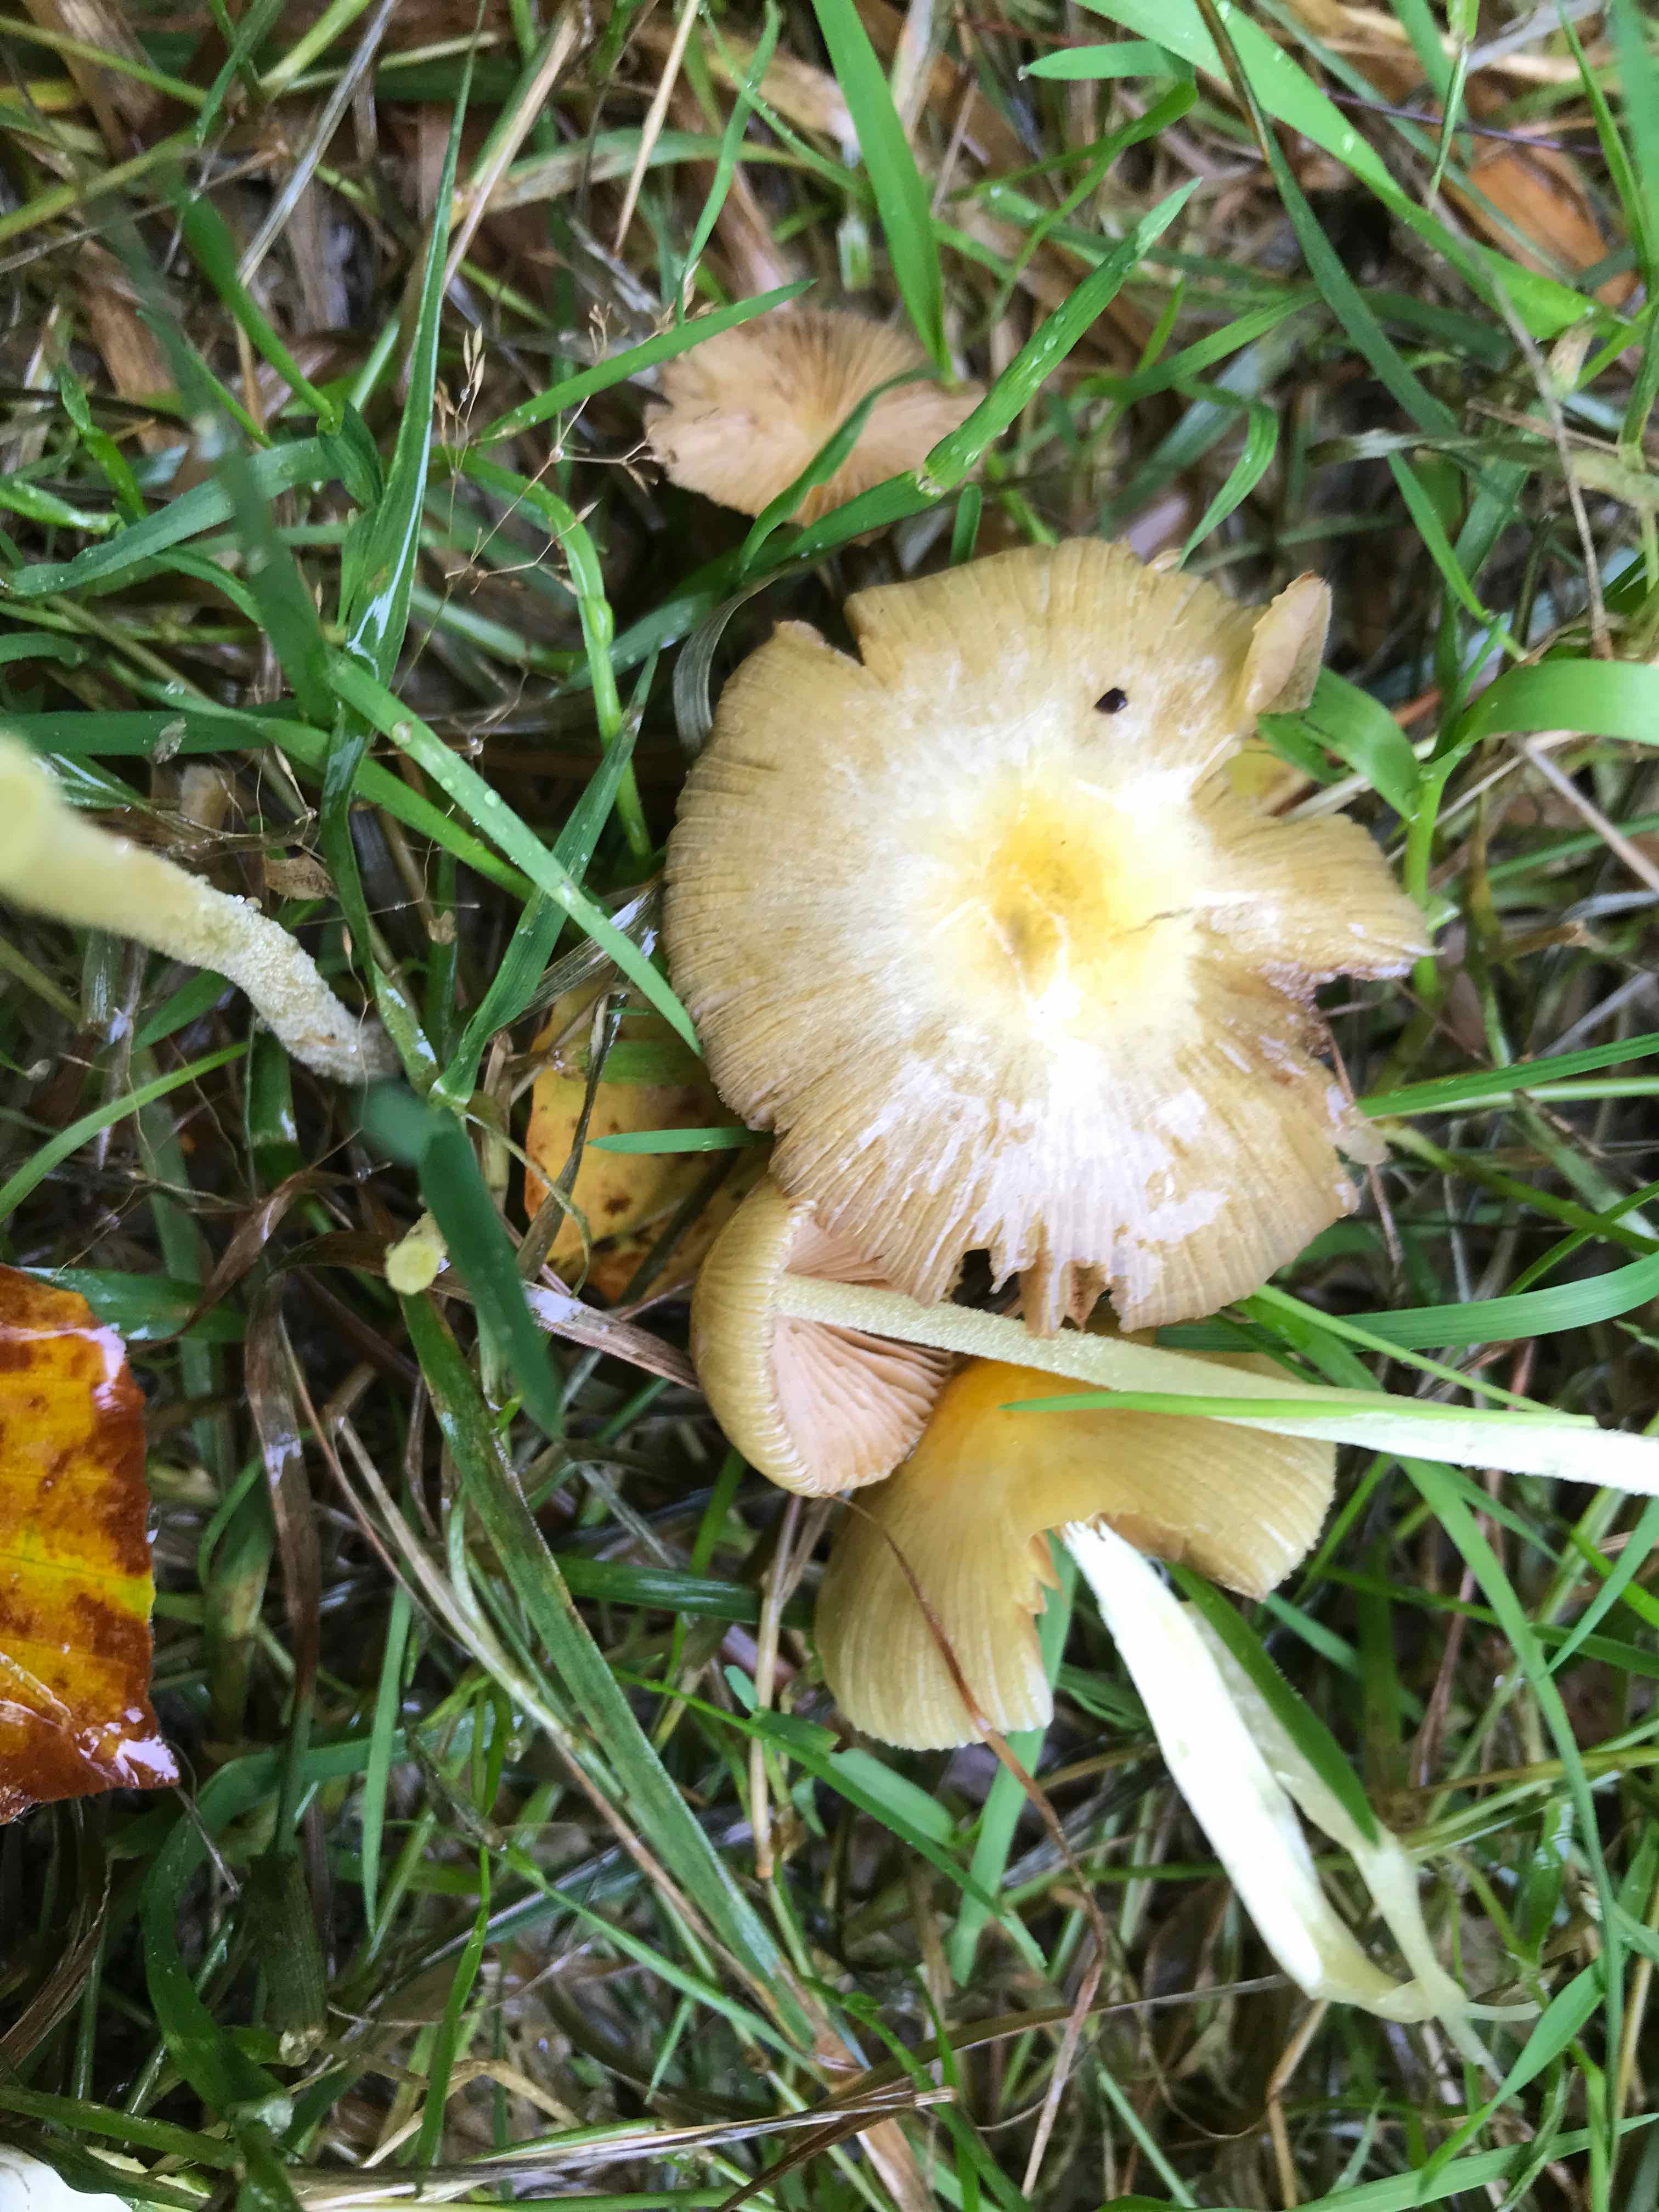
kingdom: Fungi
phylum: Basidiomycota
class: Agaricomycetes
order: Agaricales
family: Bolbitiaceae
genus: Bolbitius
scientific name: Bolbitius titubans
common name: almindelig gulhat
